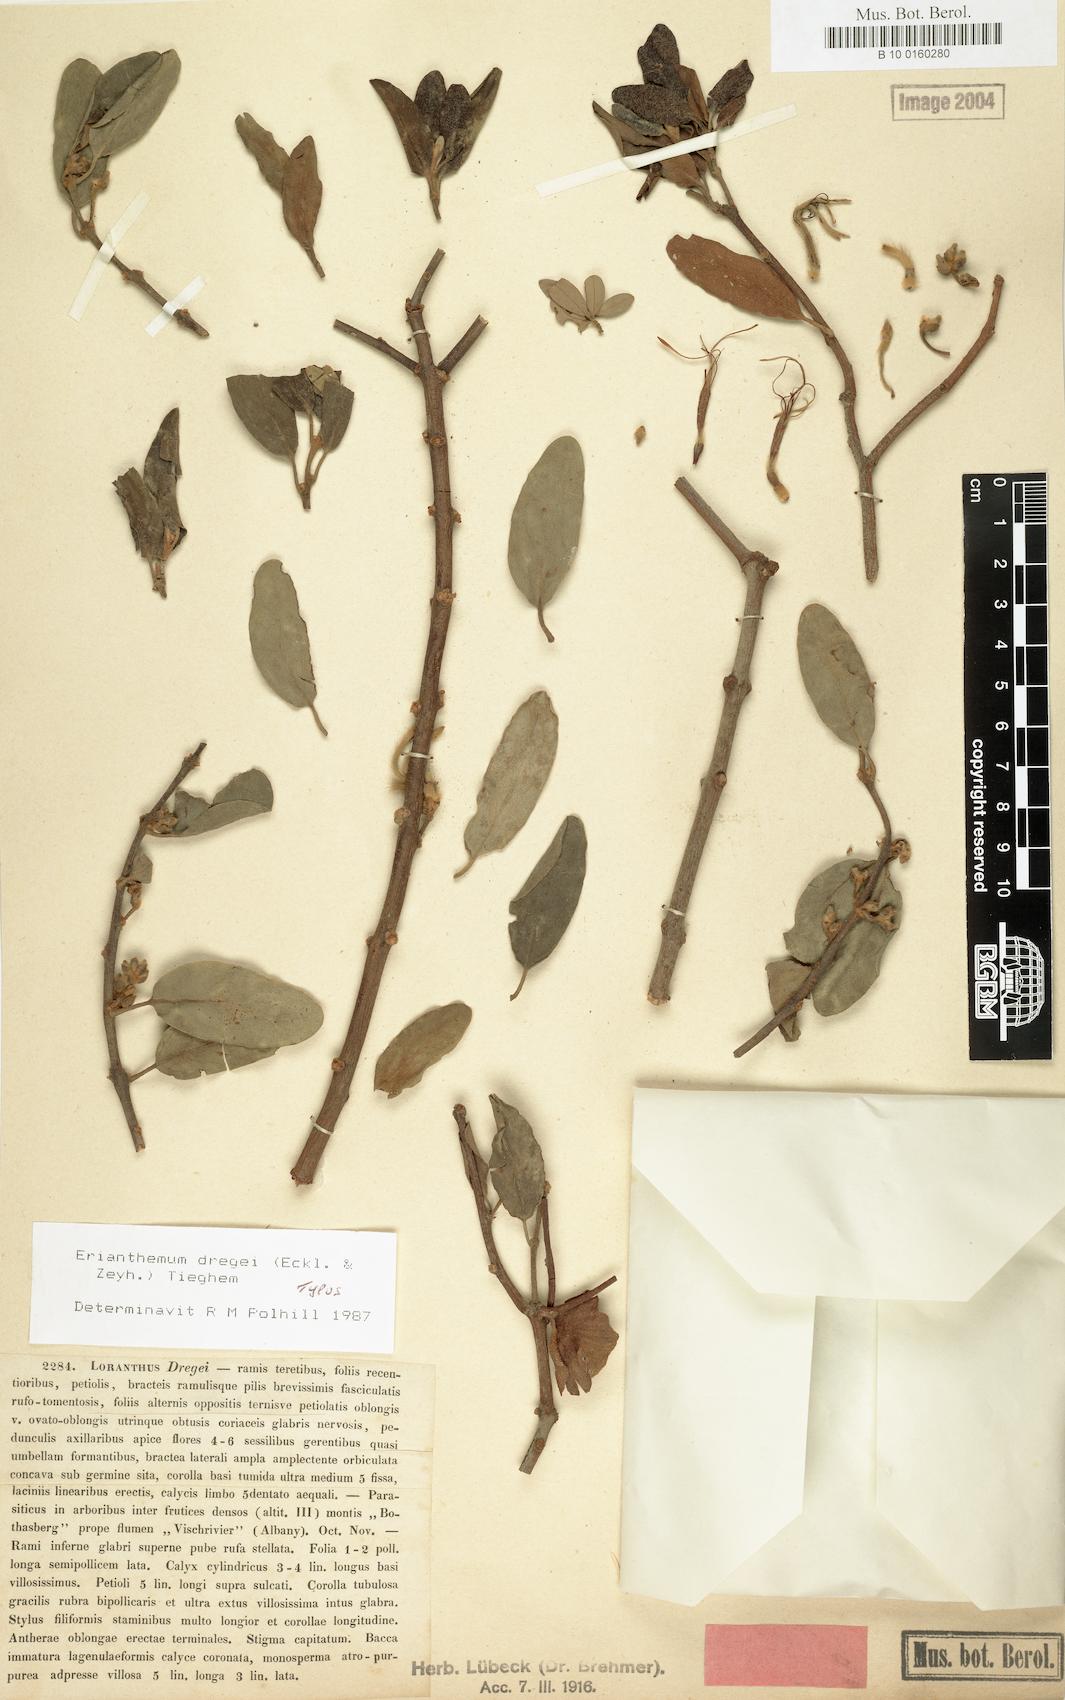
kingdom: Plantae
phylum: Tracheophyta
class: Magnoliopsida
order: Santalales
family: Loranthaceae
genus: Erianthemum
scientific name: Erianthemum dregei
